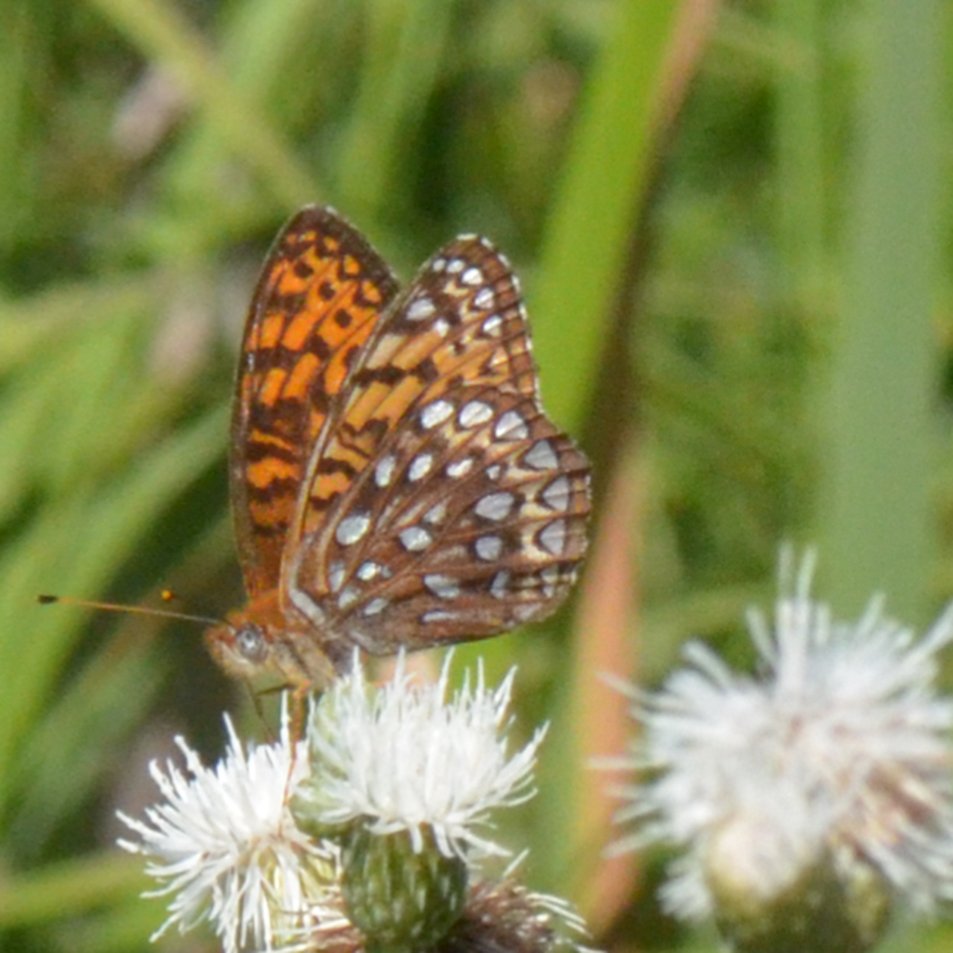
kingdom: Animalia
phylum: Arthropoda
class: Insecta
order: Lepidoptera
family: Nymphalidae
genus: Speyeria
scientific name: Speyeria atlantis
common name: Atlantis Fritillary
